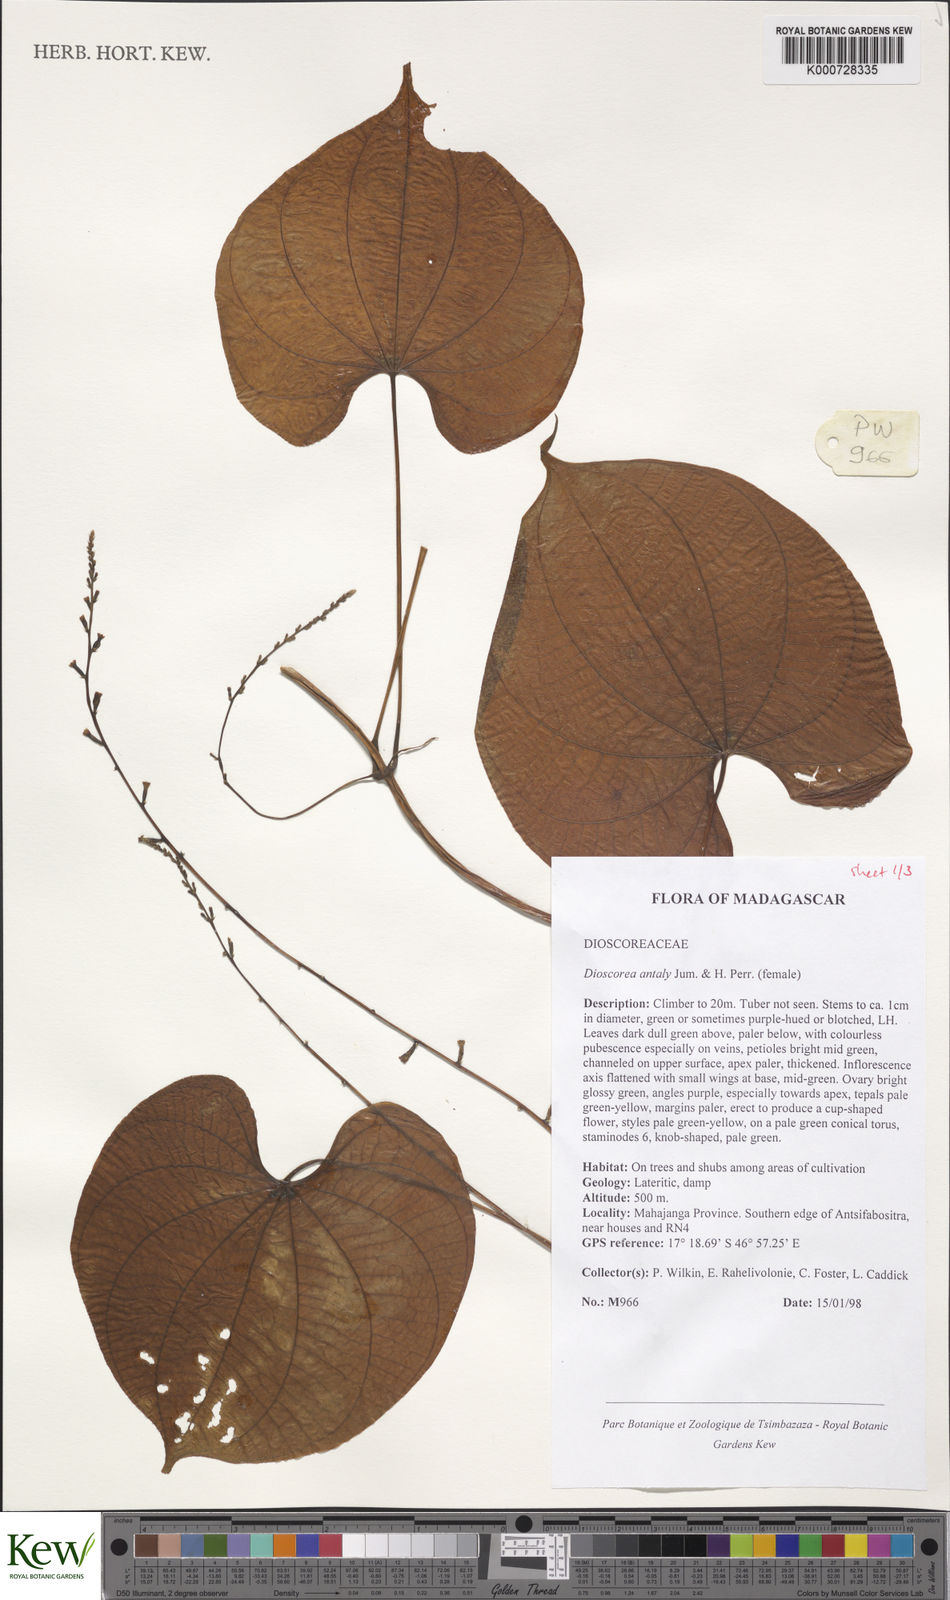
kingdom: Plantae
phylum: Tracheophyta
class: Liliopsida
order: Dioscoreales
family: Dioscoreaceae
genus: Dioscorea
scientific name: Dioscorea antaly
